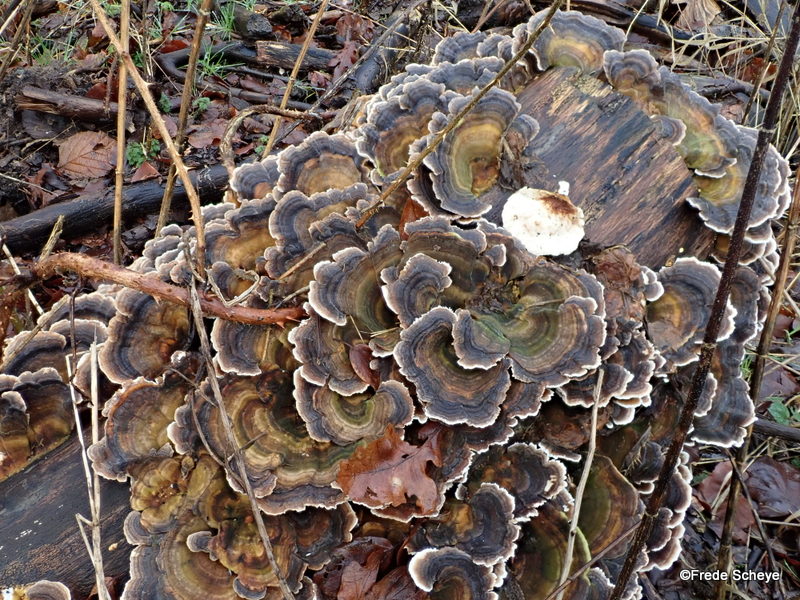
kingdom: Fungi
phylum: Basidiomycota
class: Agaricomycetes
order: Polyporales
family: Polyporaceae
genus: Trametes
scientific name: Trametes versicolor
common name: broget læderporesvamp
